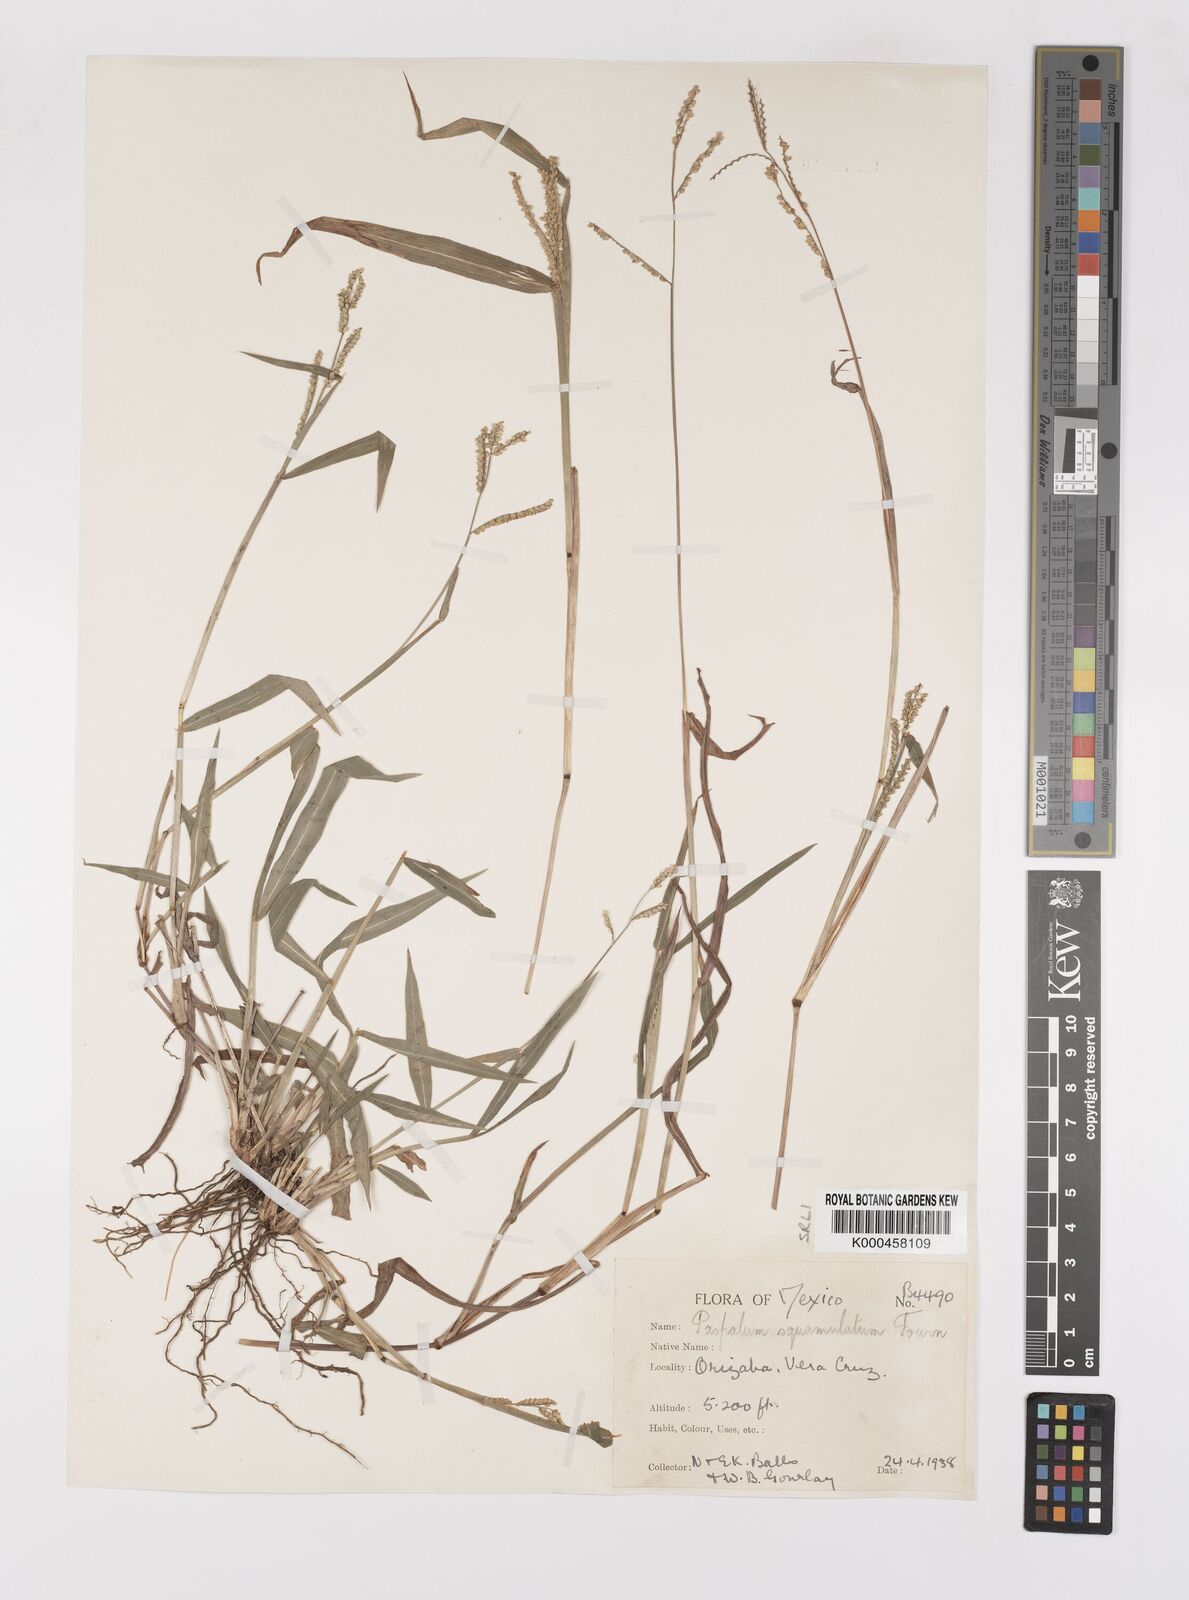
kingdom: Plantae
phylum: Tracheophyta
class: Liliopsida
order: Poales
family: Poaceae
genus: Paspalum
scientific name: Paspalum
